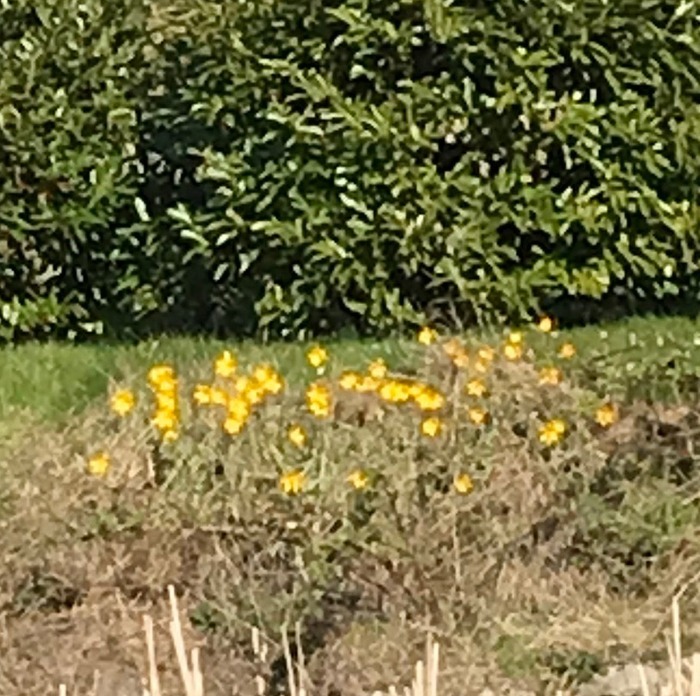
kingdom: Plantae
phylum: Tracheophyta
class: Liliopsida
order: Liliales
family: Liliaceae
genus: Tulipa
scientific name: Tulipa sylvestris
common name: Vild tulipan
